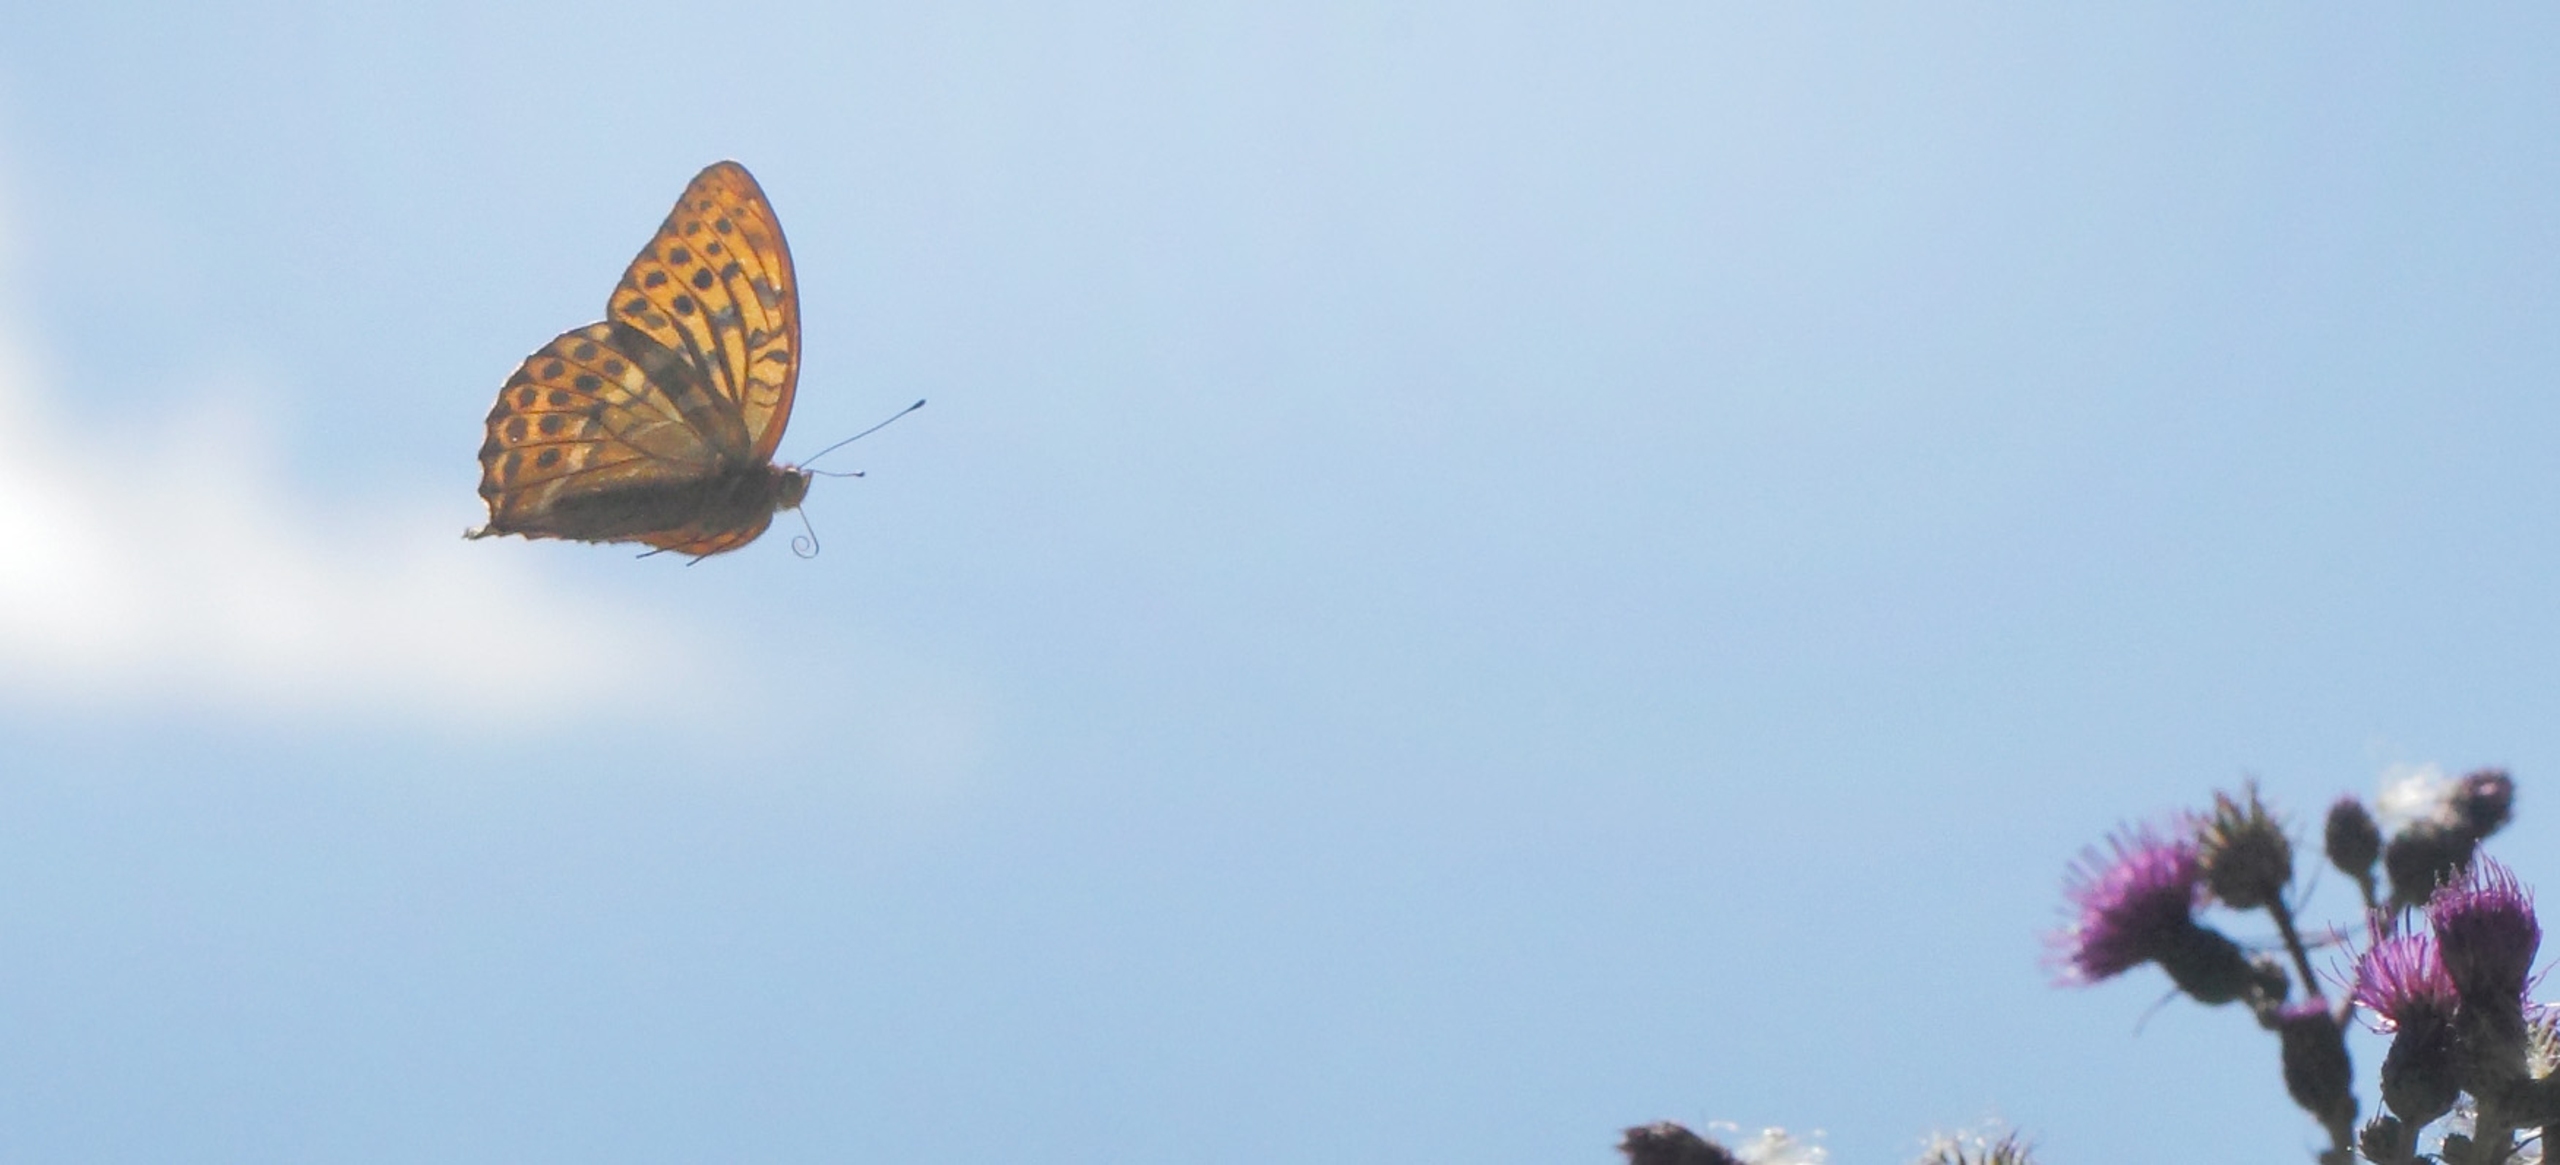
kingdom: Animalia
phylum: Arthropoda
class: Insecta
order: Lepidoptera
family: Nymphalidae
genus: Argynnis
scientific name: Argynnis paphia
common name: Kejserkåbe
